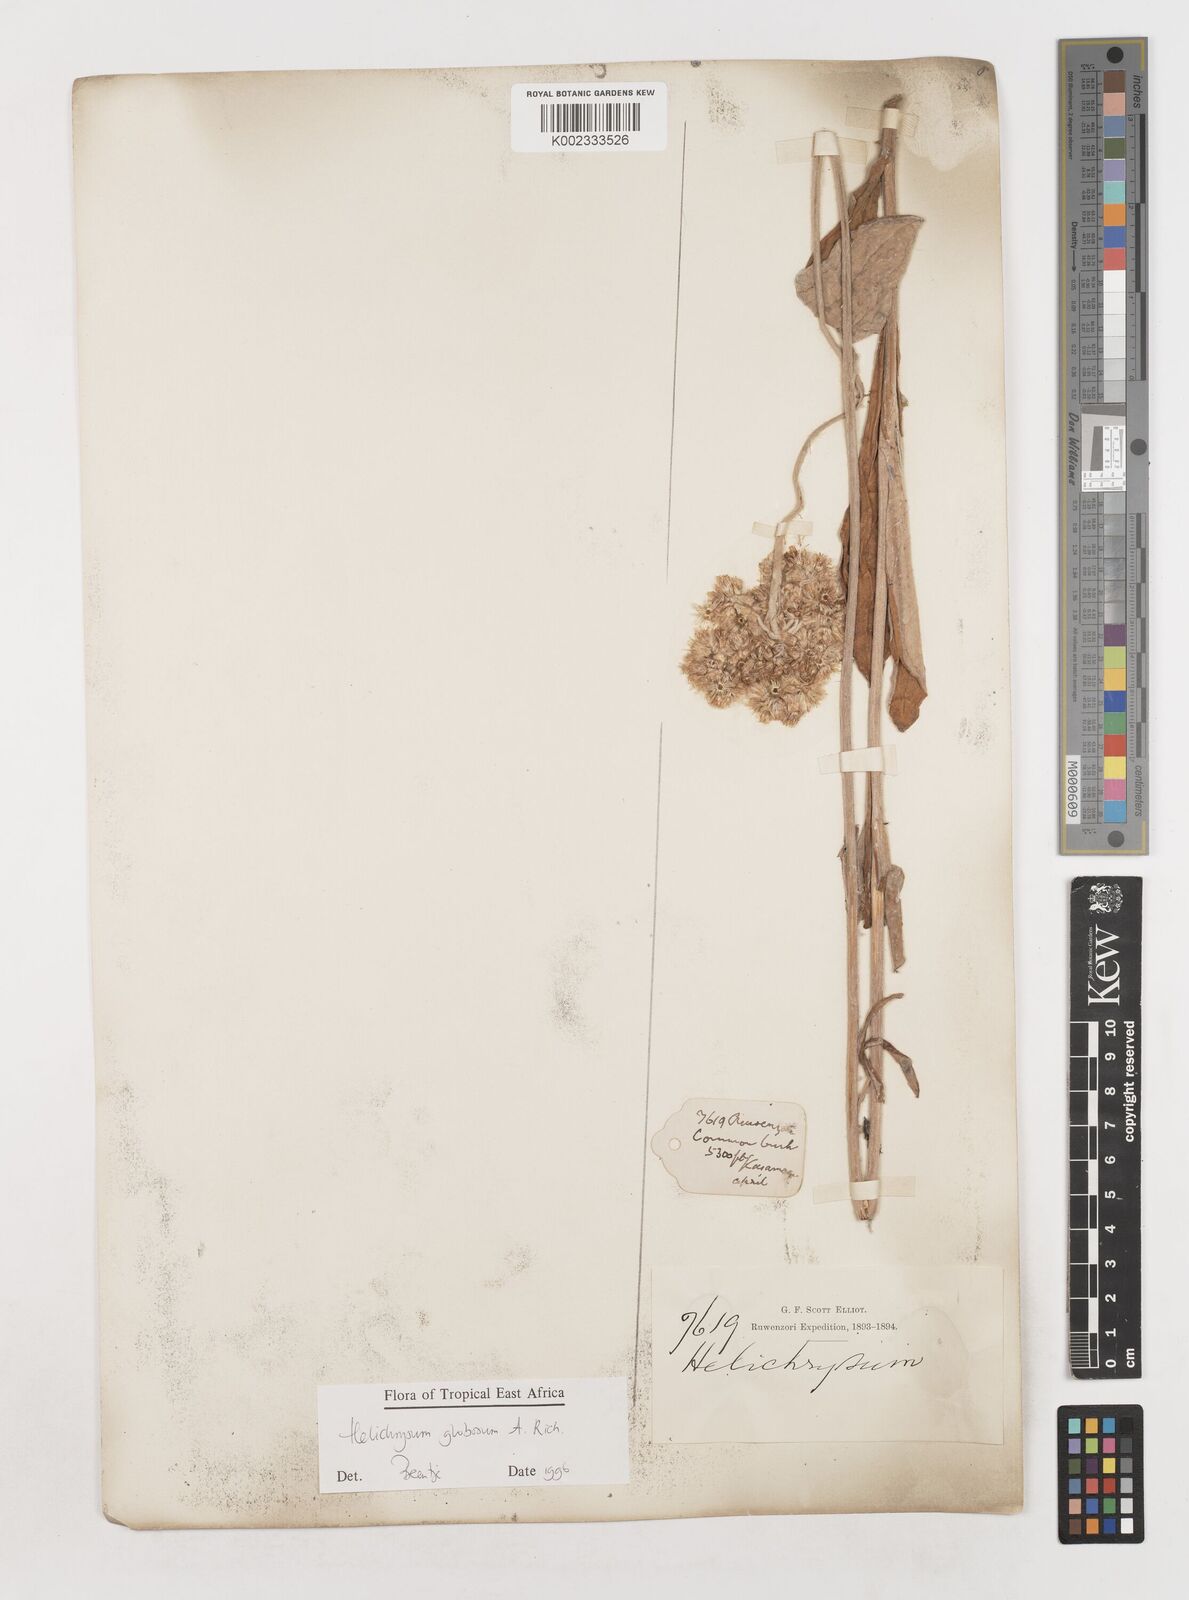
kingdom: Plantae
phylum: Tracheophyta
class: Magnoliopsida
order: Asterales
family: Asteraceae
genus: Helichrysum
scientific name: Helichrysum globosum
